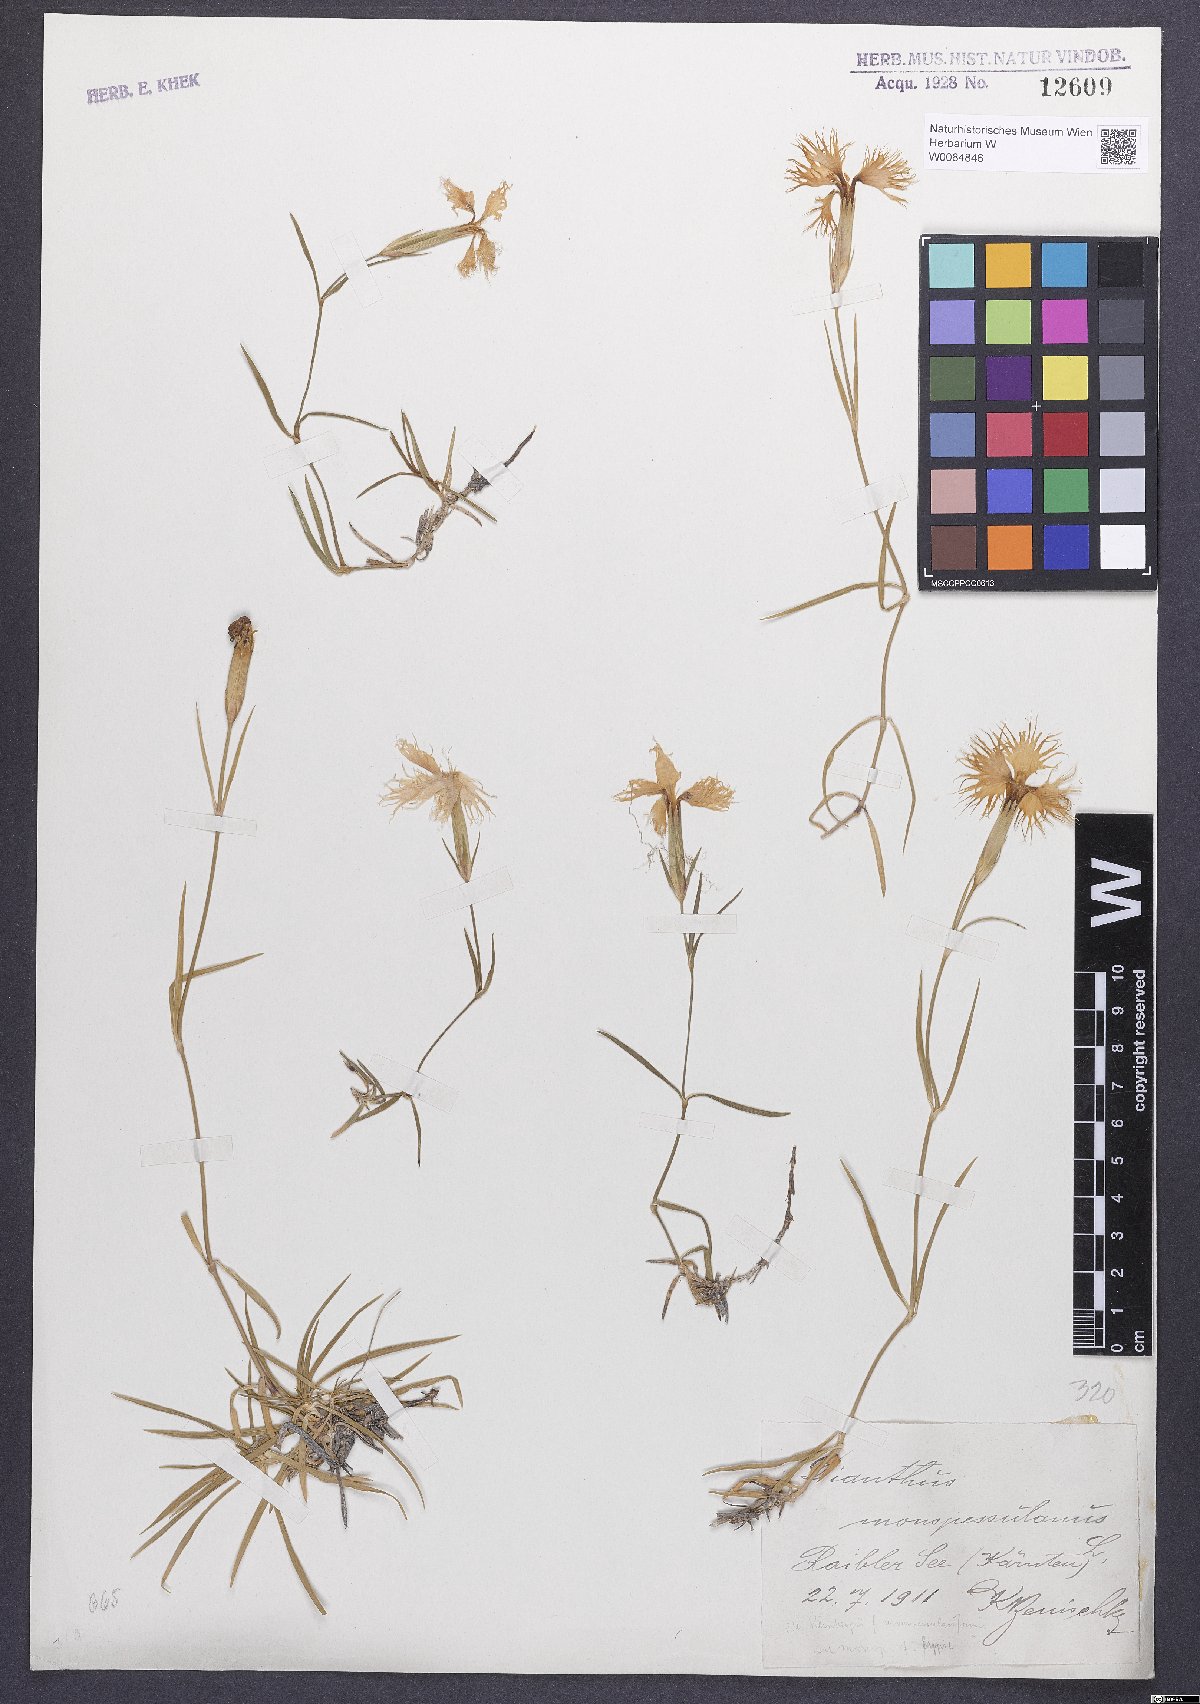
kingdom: Plantae
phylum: Tracheophyta
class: Magnoliopsida
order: Caryophyllales
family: Caryophyllaceae
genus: Dianthus
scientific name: Dianthus hyssopifolius
